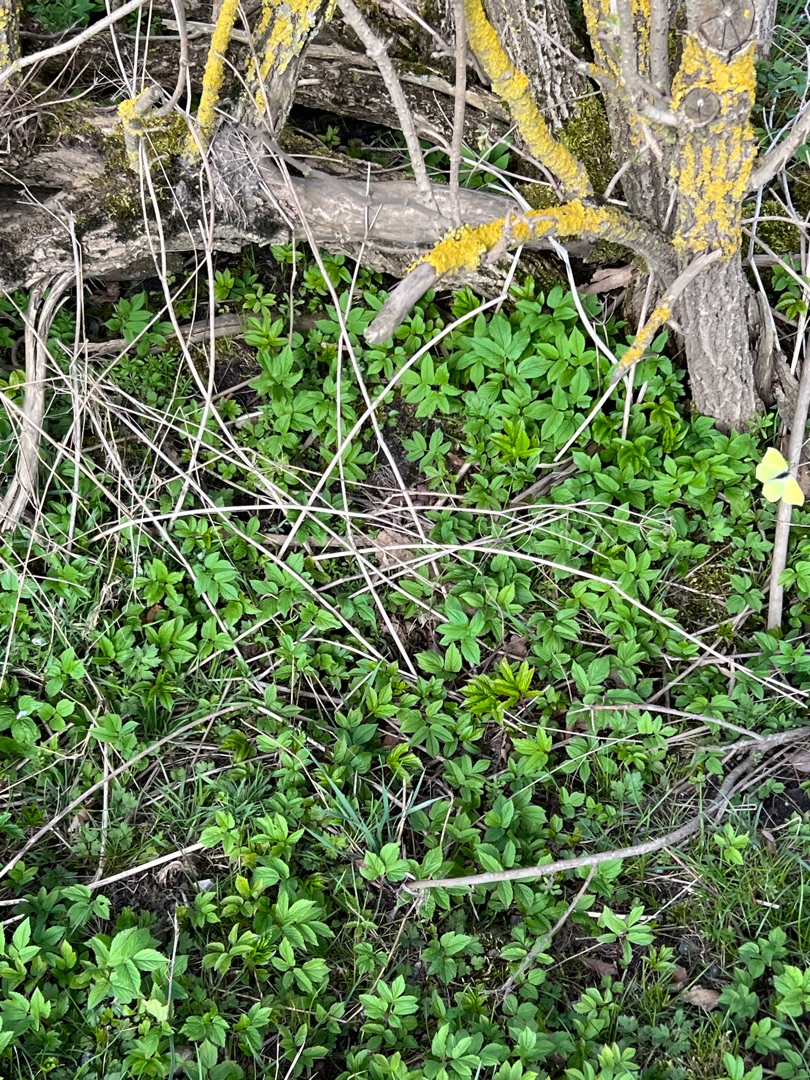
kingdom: Animalia
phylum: Arthropoda
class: Insecta
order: Lepidoptera
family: Pieridae
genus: Gonepteryx
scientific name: Gonepteryx rhamni
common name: Citronsommerfugl
